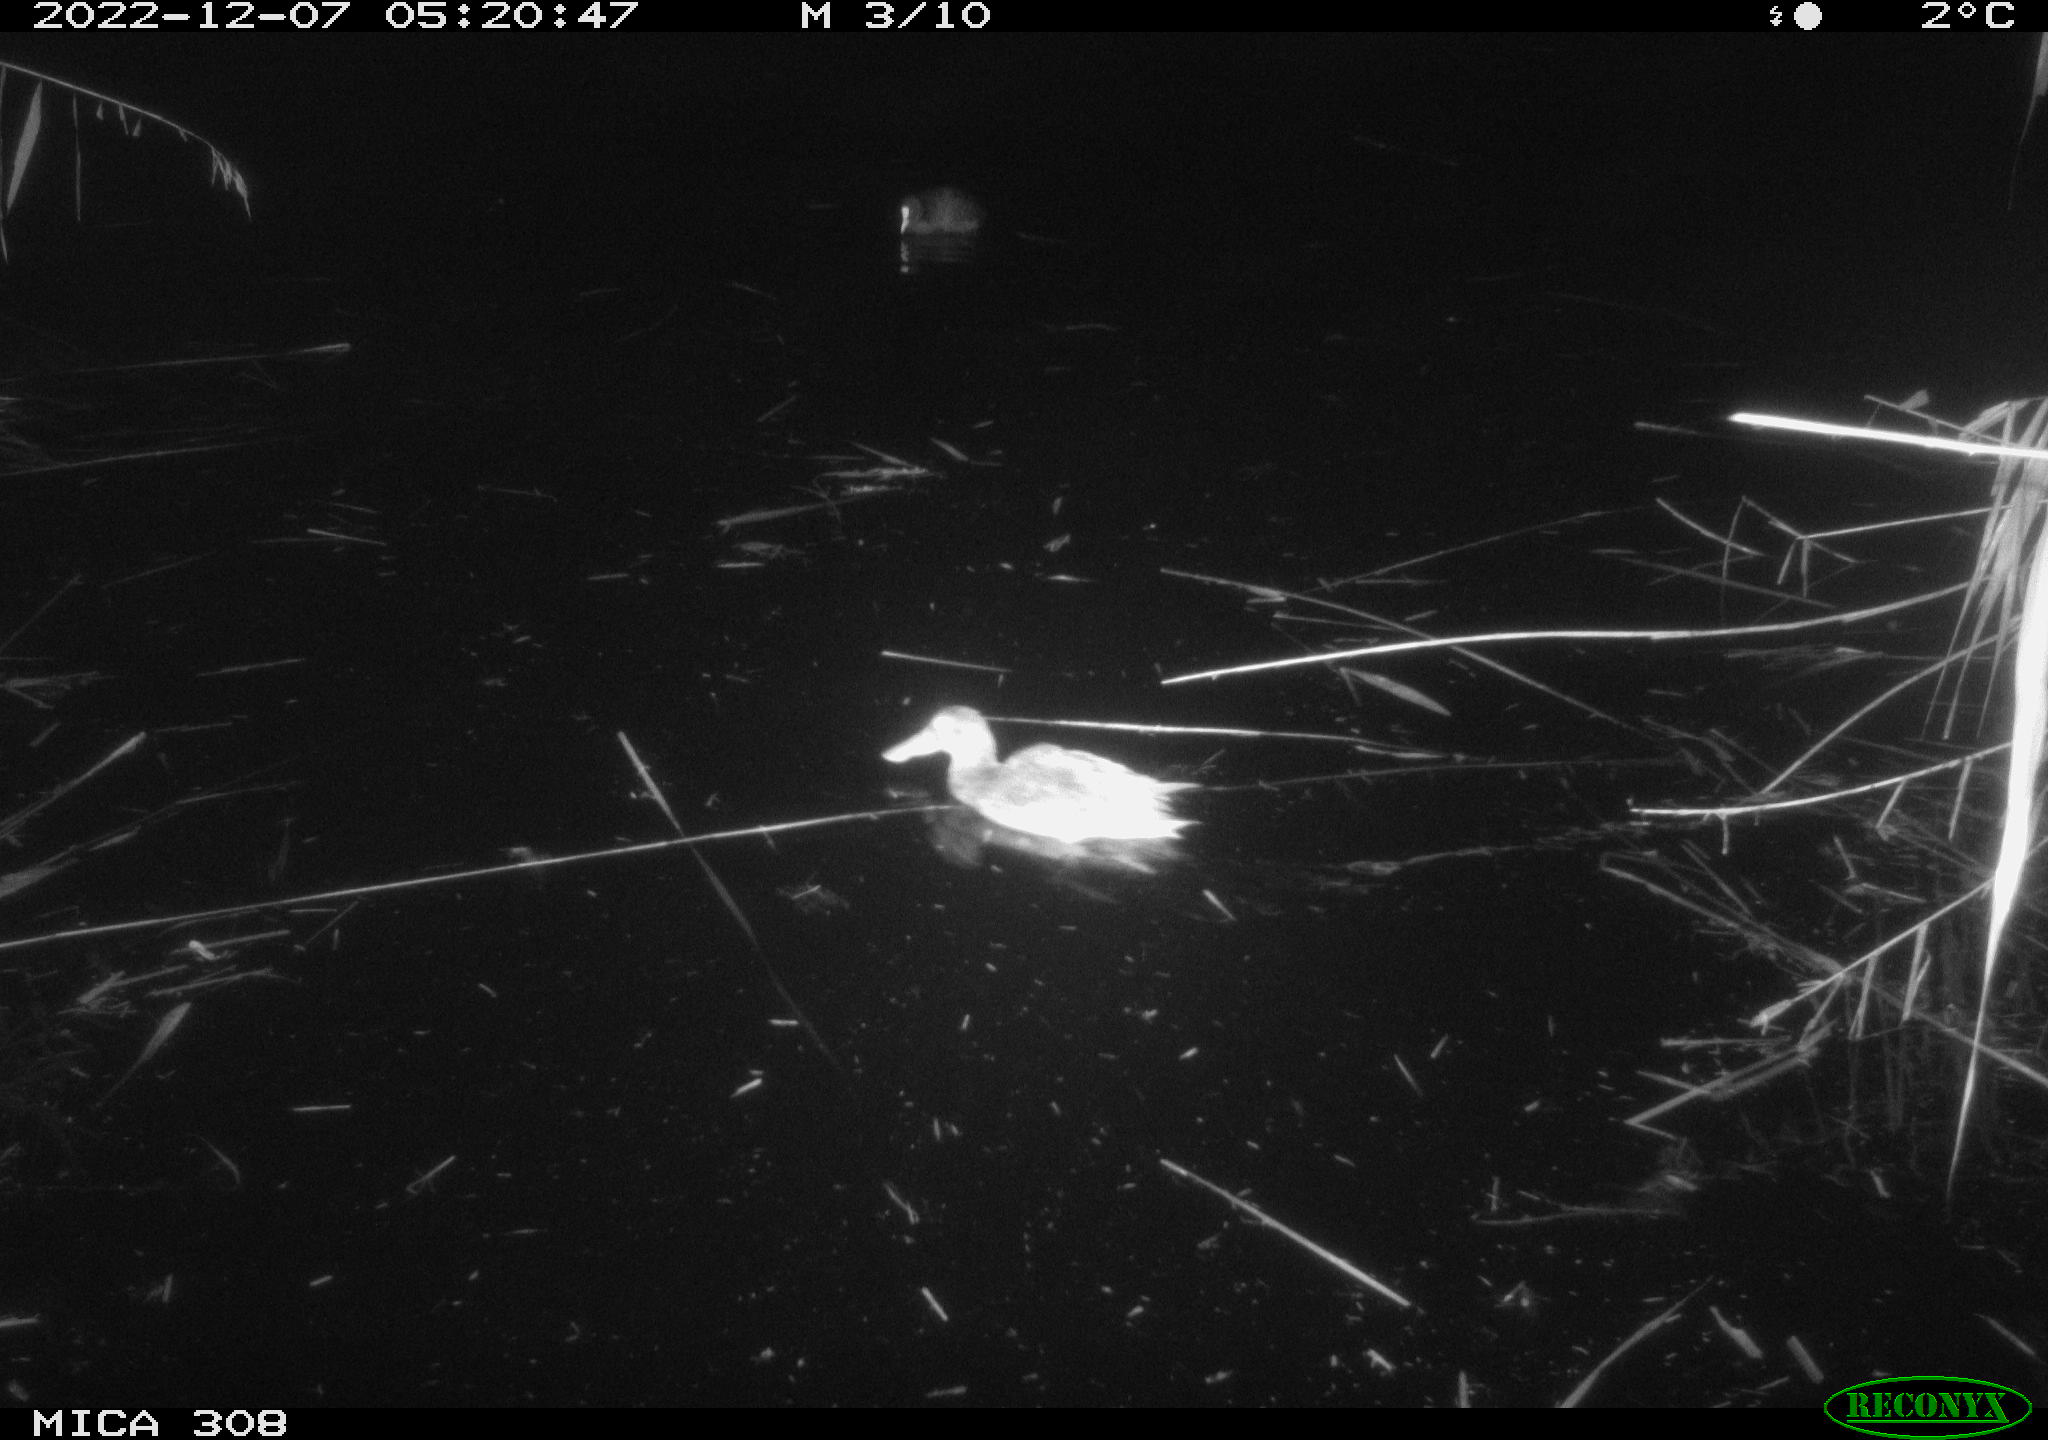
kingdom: Animalia
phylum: Chordata
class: Aves
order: Gruiformes
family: Rallidae
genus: Gallinula
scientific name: Gallinula chloropus
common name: Common moorhen
